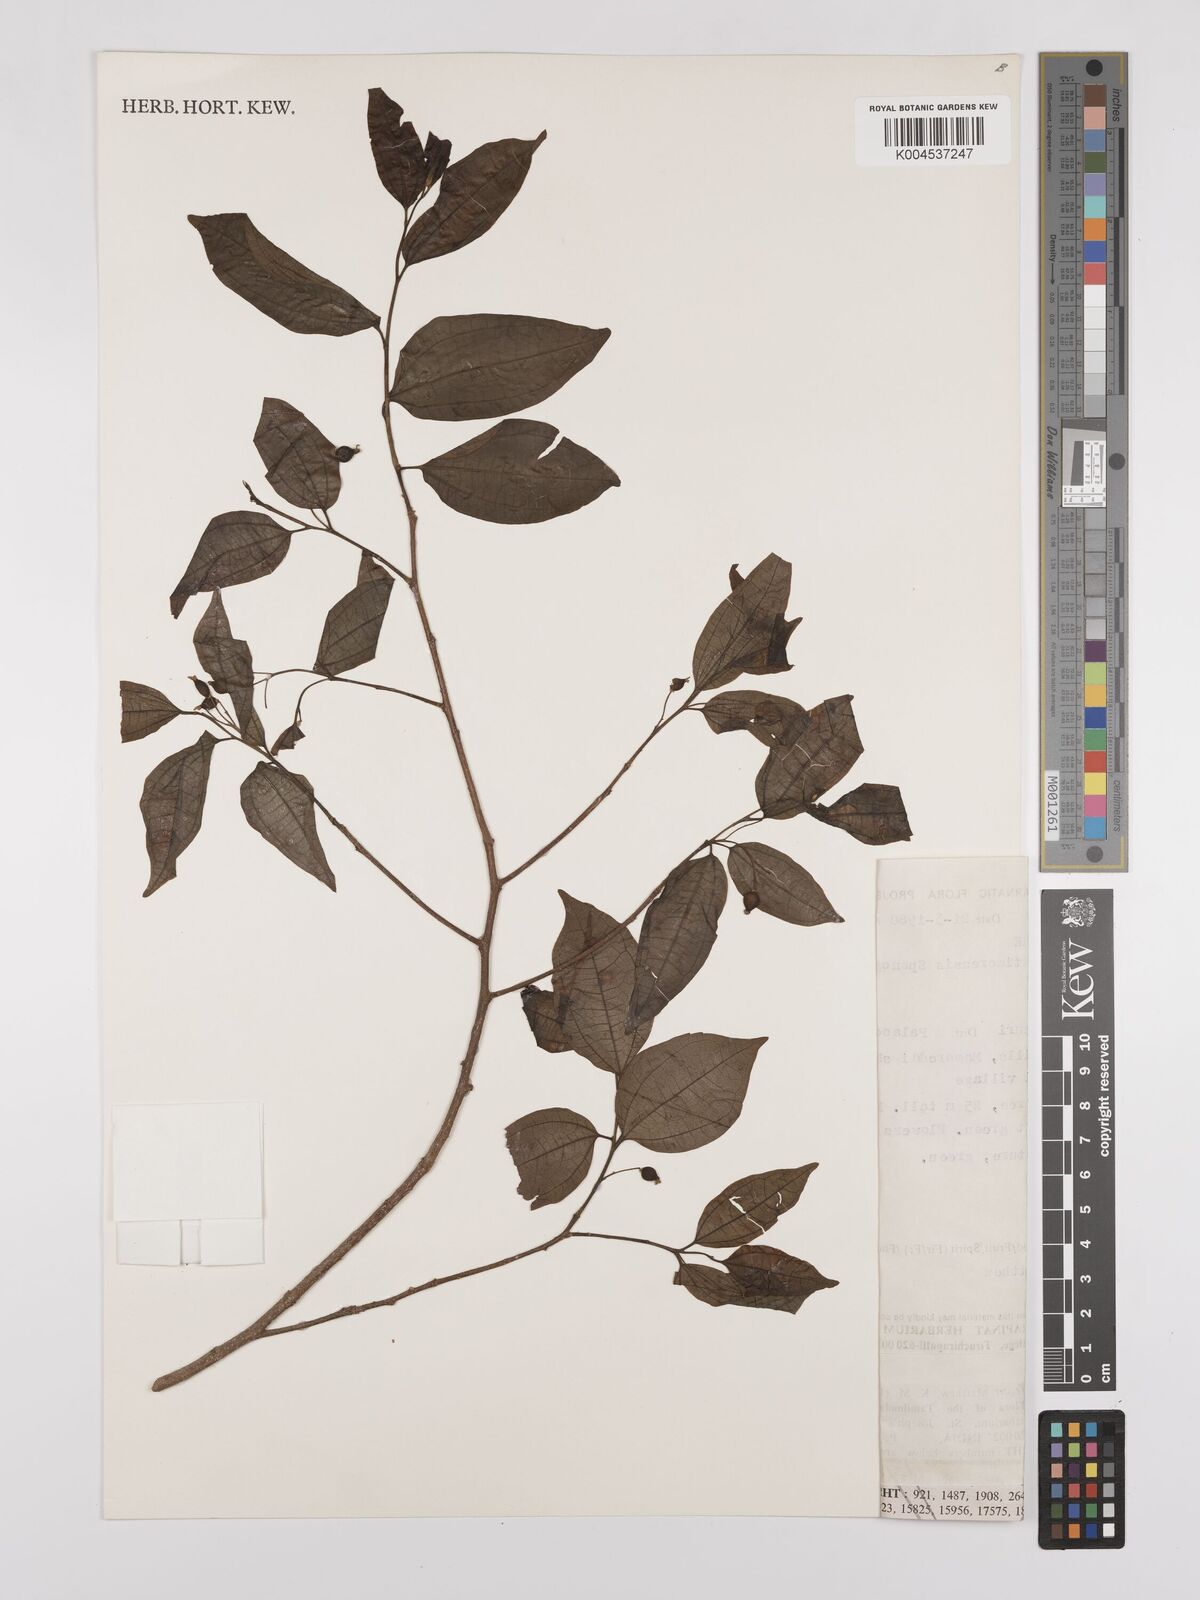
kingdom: Plantae
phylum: Tracheophyta
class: Magnoliopsida
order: Rosales
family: Cannabaceae
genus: Celtis
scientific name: Celtis timorensis
